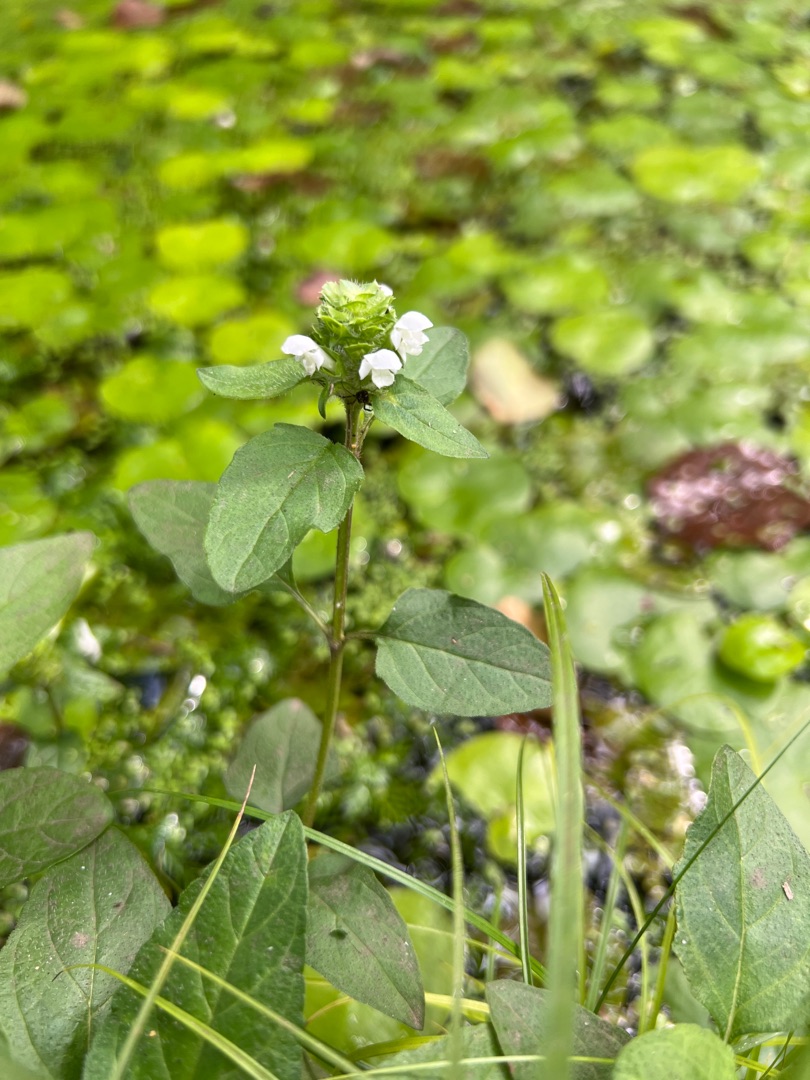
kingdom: Plantae
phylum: Tracheophyta
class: Magnoliopsida
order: Lamiales
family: Lamiaceae
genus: Prunella
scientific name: Prunella vulgaris
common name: Almindelig brunelle
